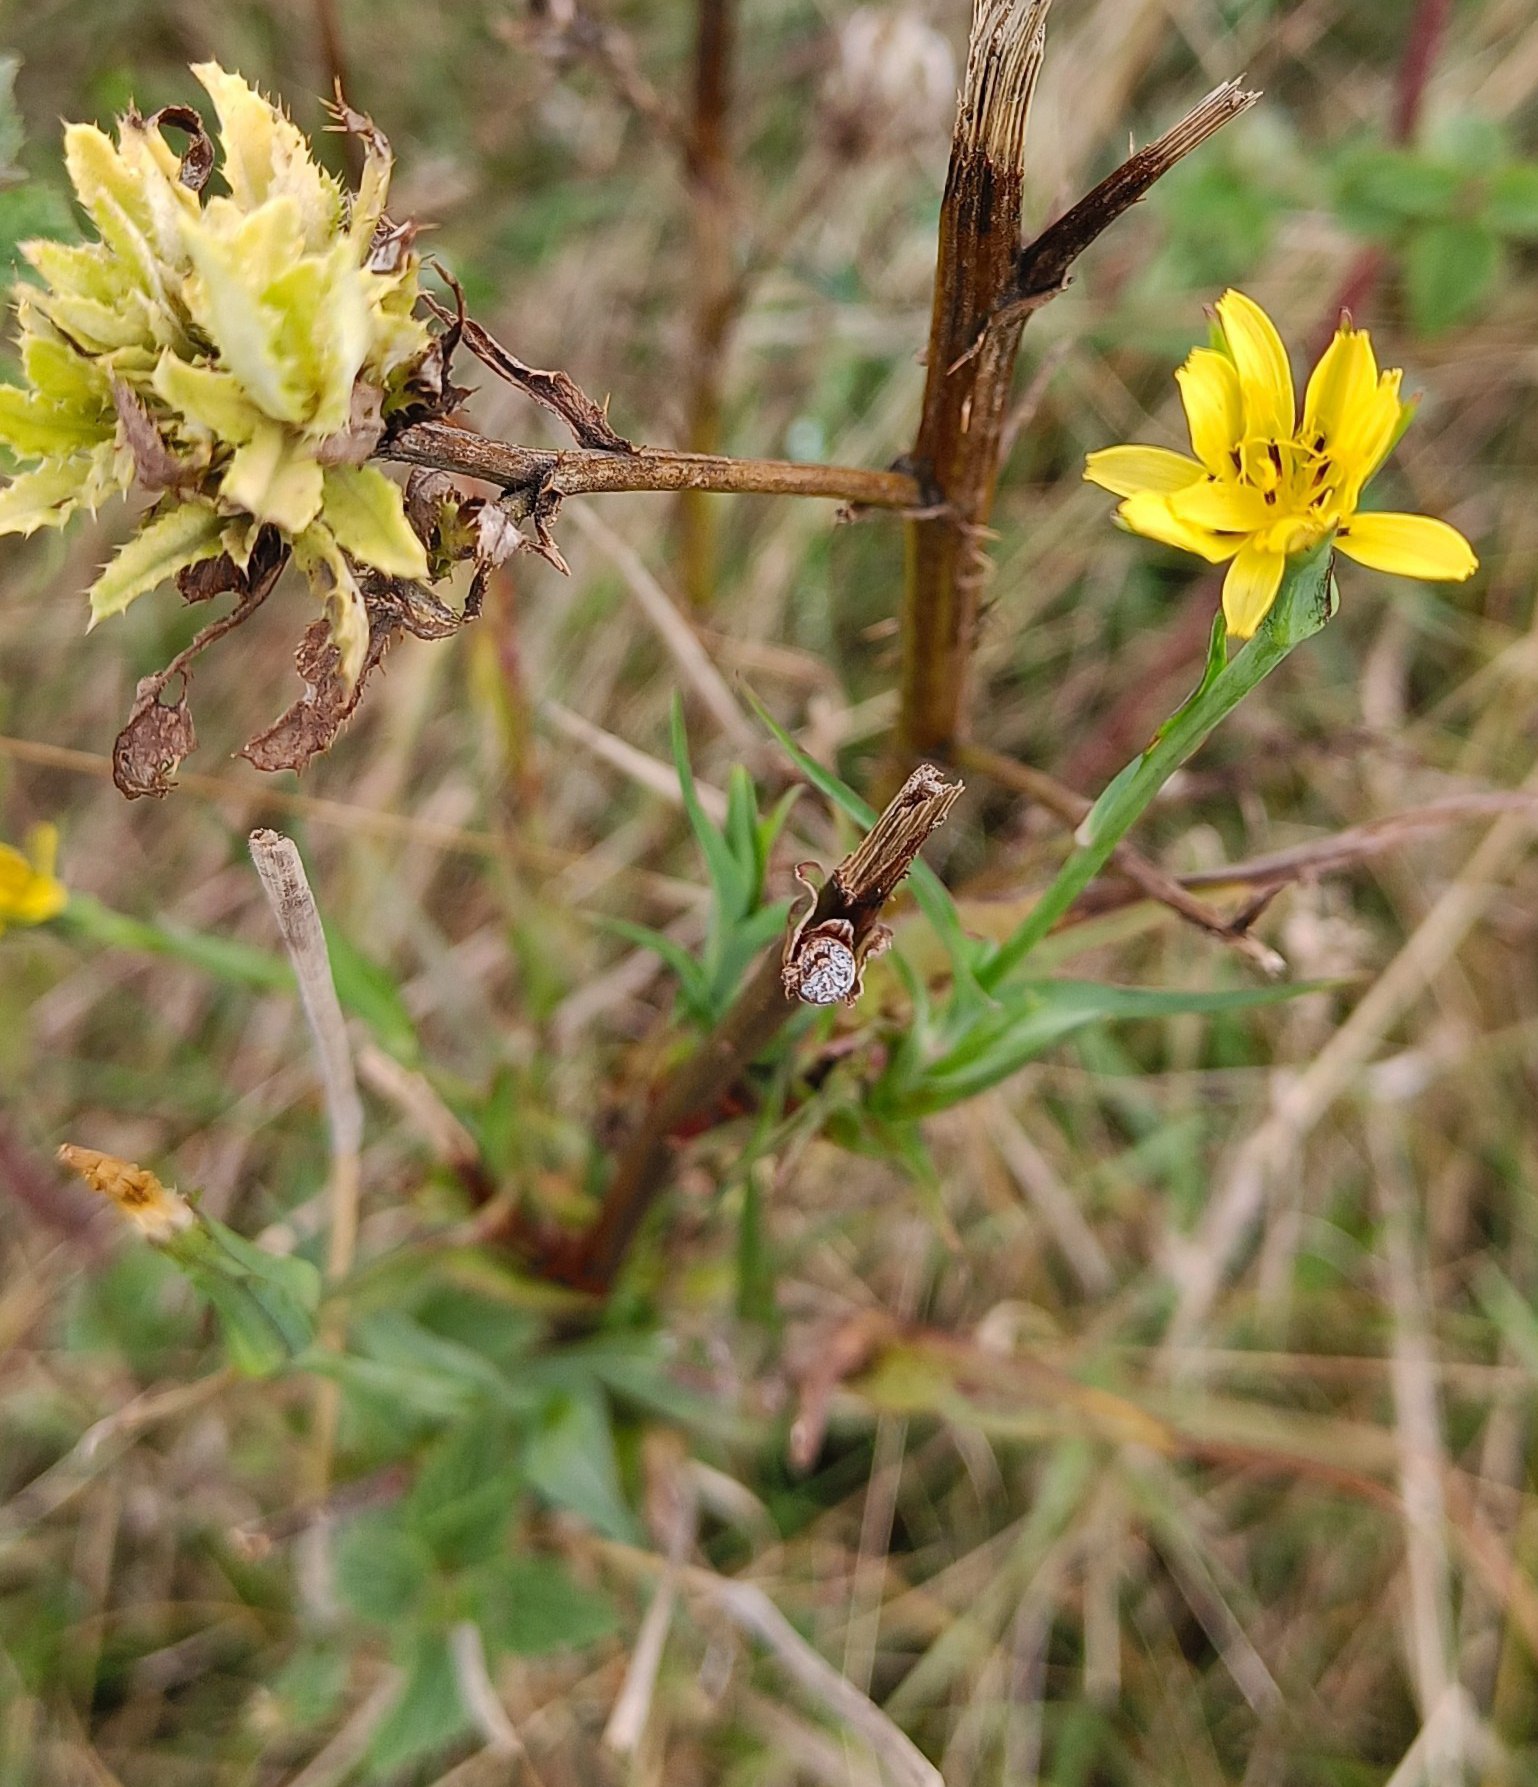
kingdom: Plantae
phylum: Tracheophyta
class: Magnoliopsida
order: Asterales
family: Asteraceae
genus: Tragopogon
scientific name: Tragopogon pratensis
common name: Gedeskæg
